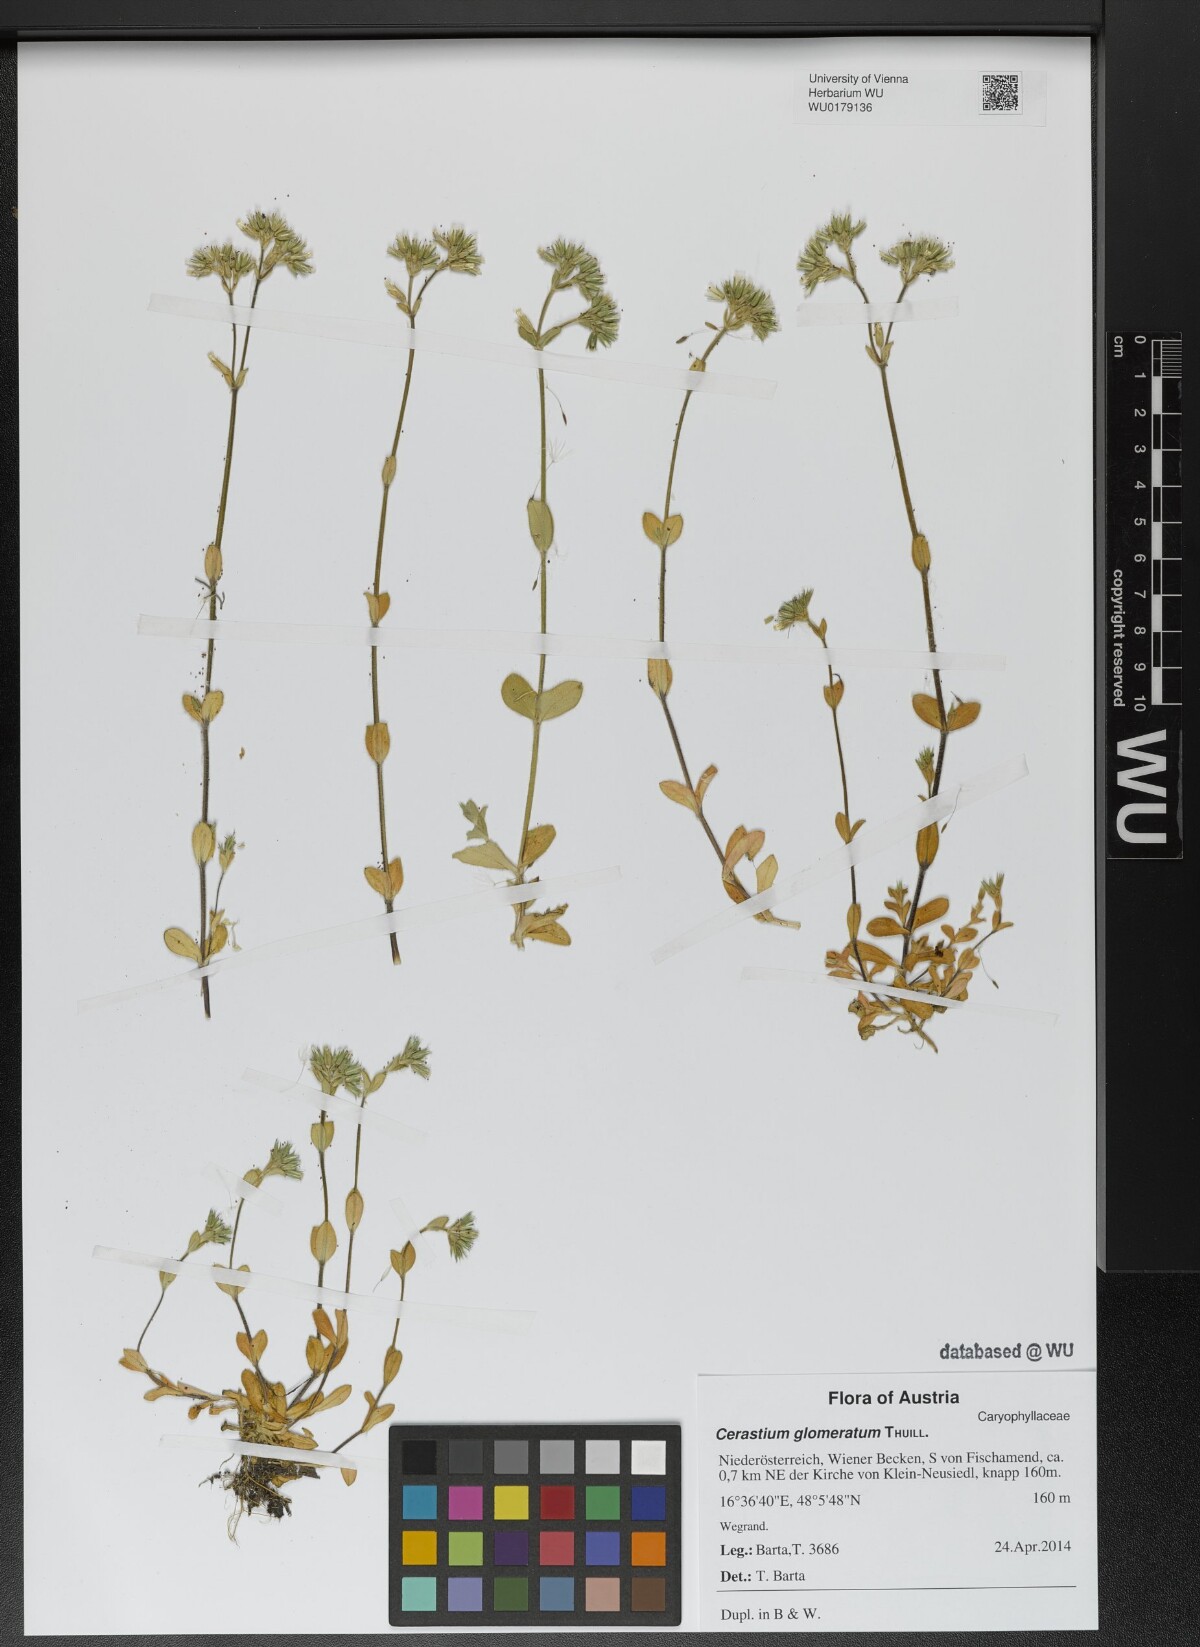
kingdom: Plantae
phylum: Tracheophyta
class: Magnoliopsida
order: Caryophyllales
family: Caryophyllaceae
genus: Cerastium
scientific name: Cerastium glomeratum
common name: Sticky chickweed
